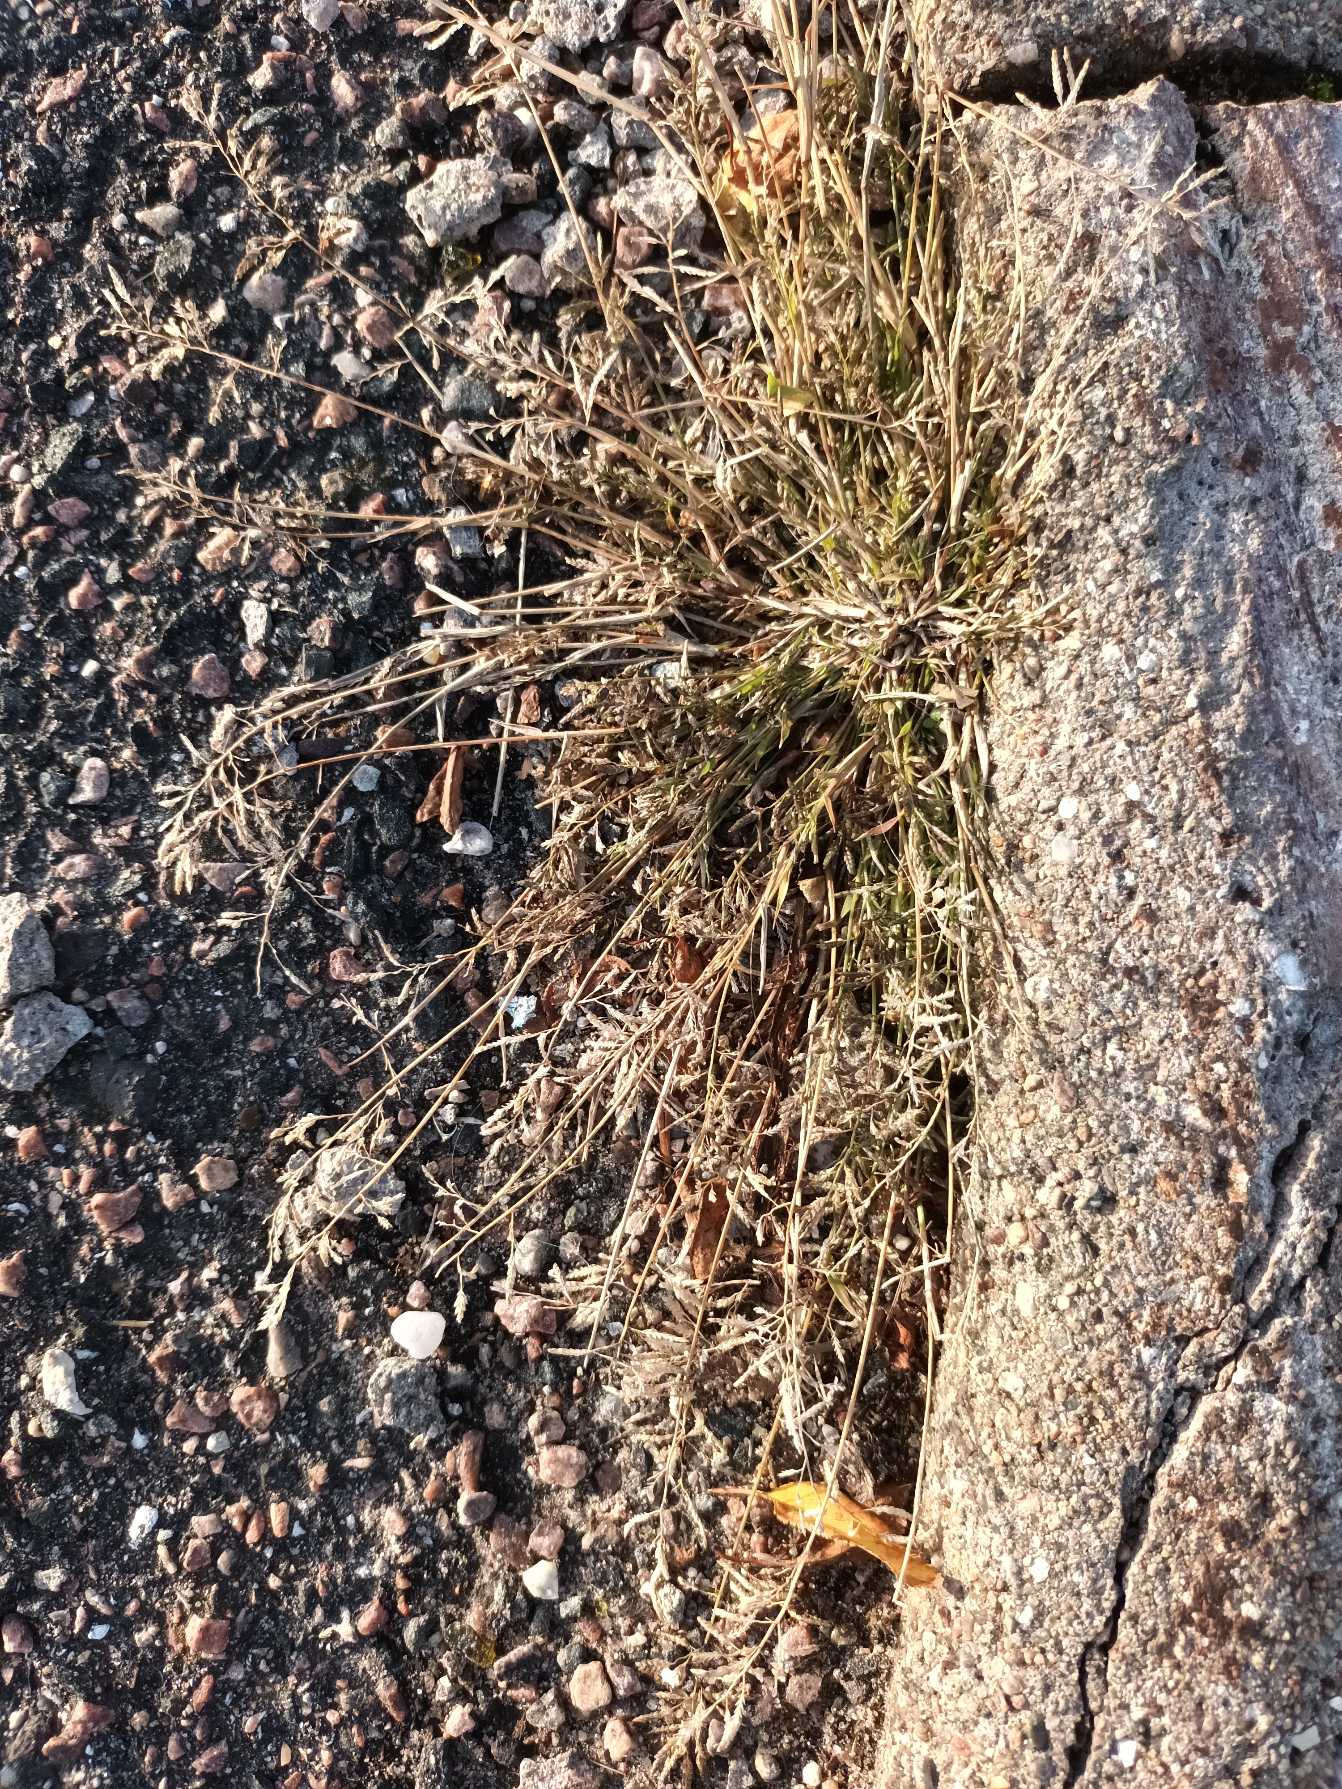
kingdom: Plantae
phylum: Tracheophyta
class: Liliopsida
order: Poales
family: Poaceae
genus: Eragrostis
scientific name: Eragrostis minor
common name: Liden kærlighedsgræs
